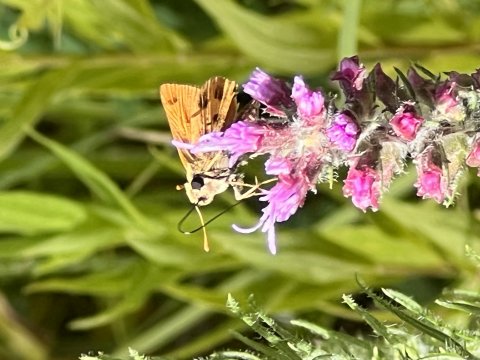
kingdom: Animalia
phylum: Arthropoda
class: Insecta
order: Lepidoptera
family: Hesperiidae
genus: Polites
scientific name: Polites vibex
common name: Whirlabout
